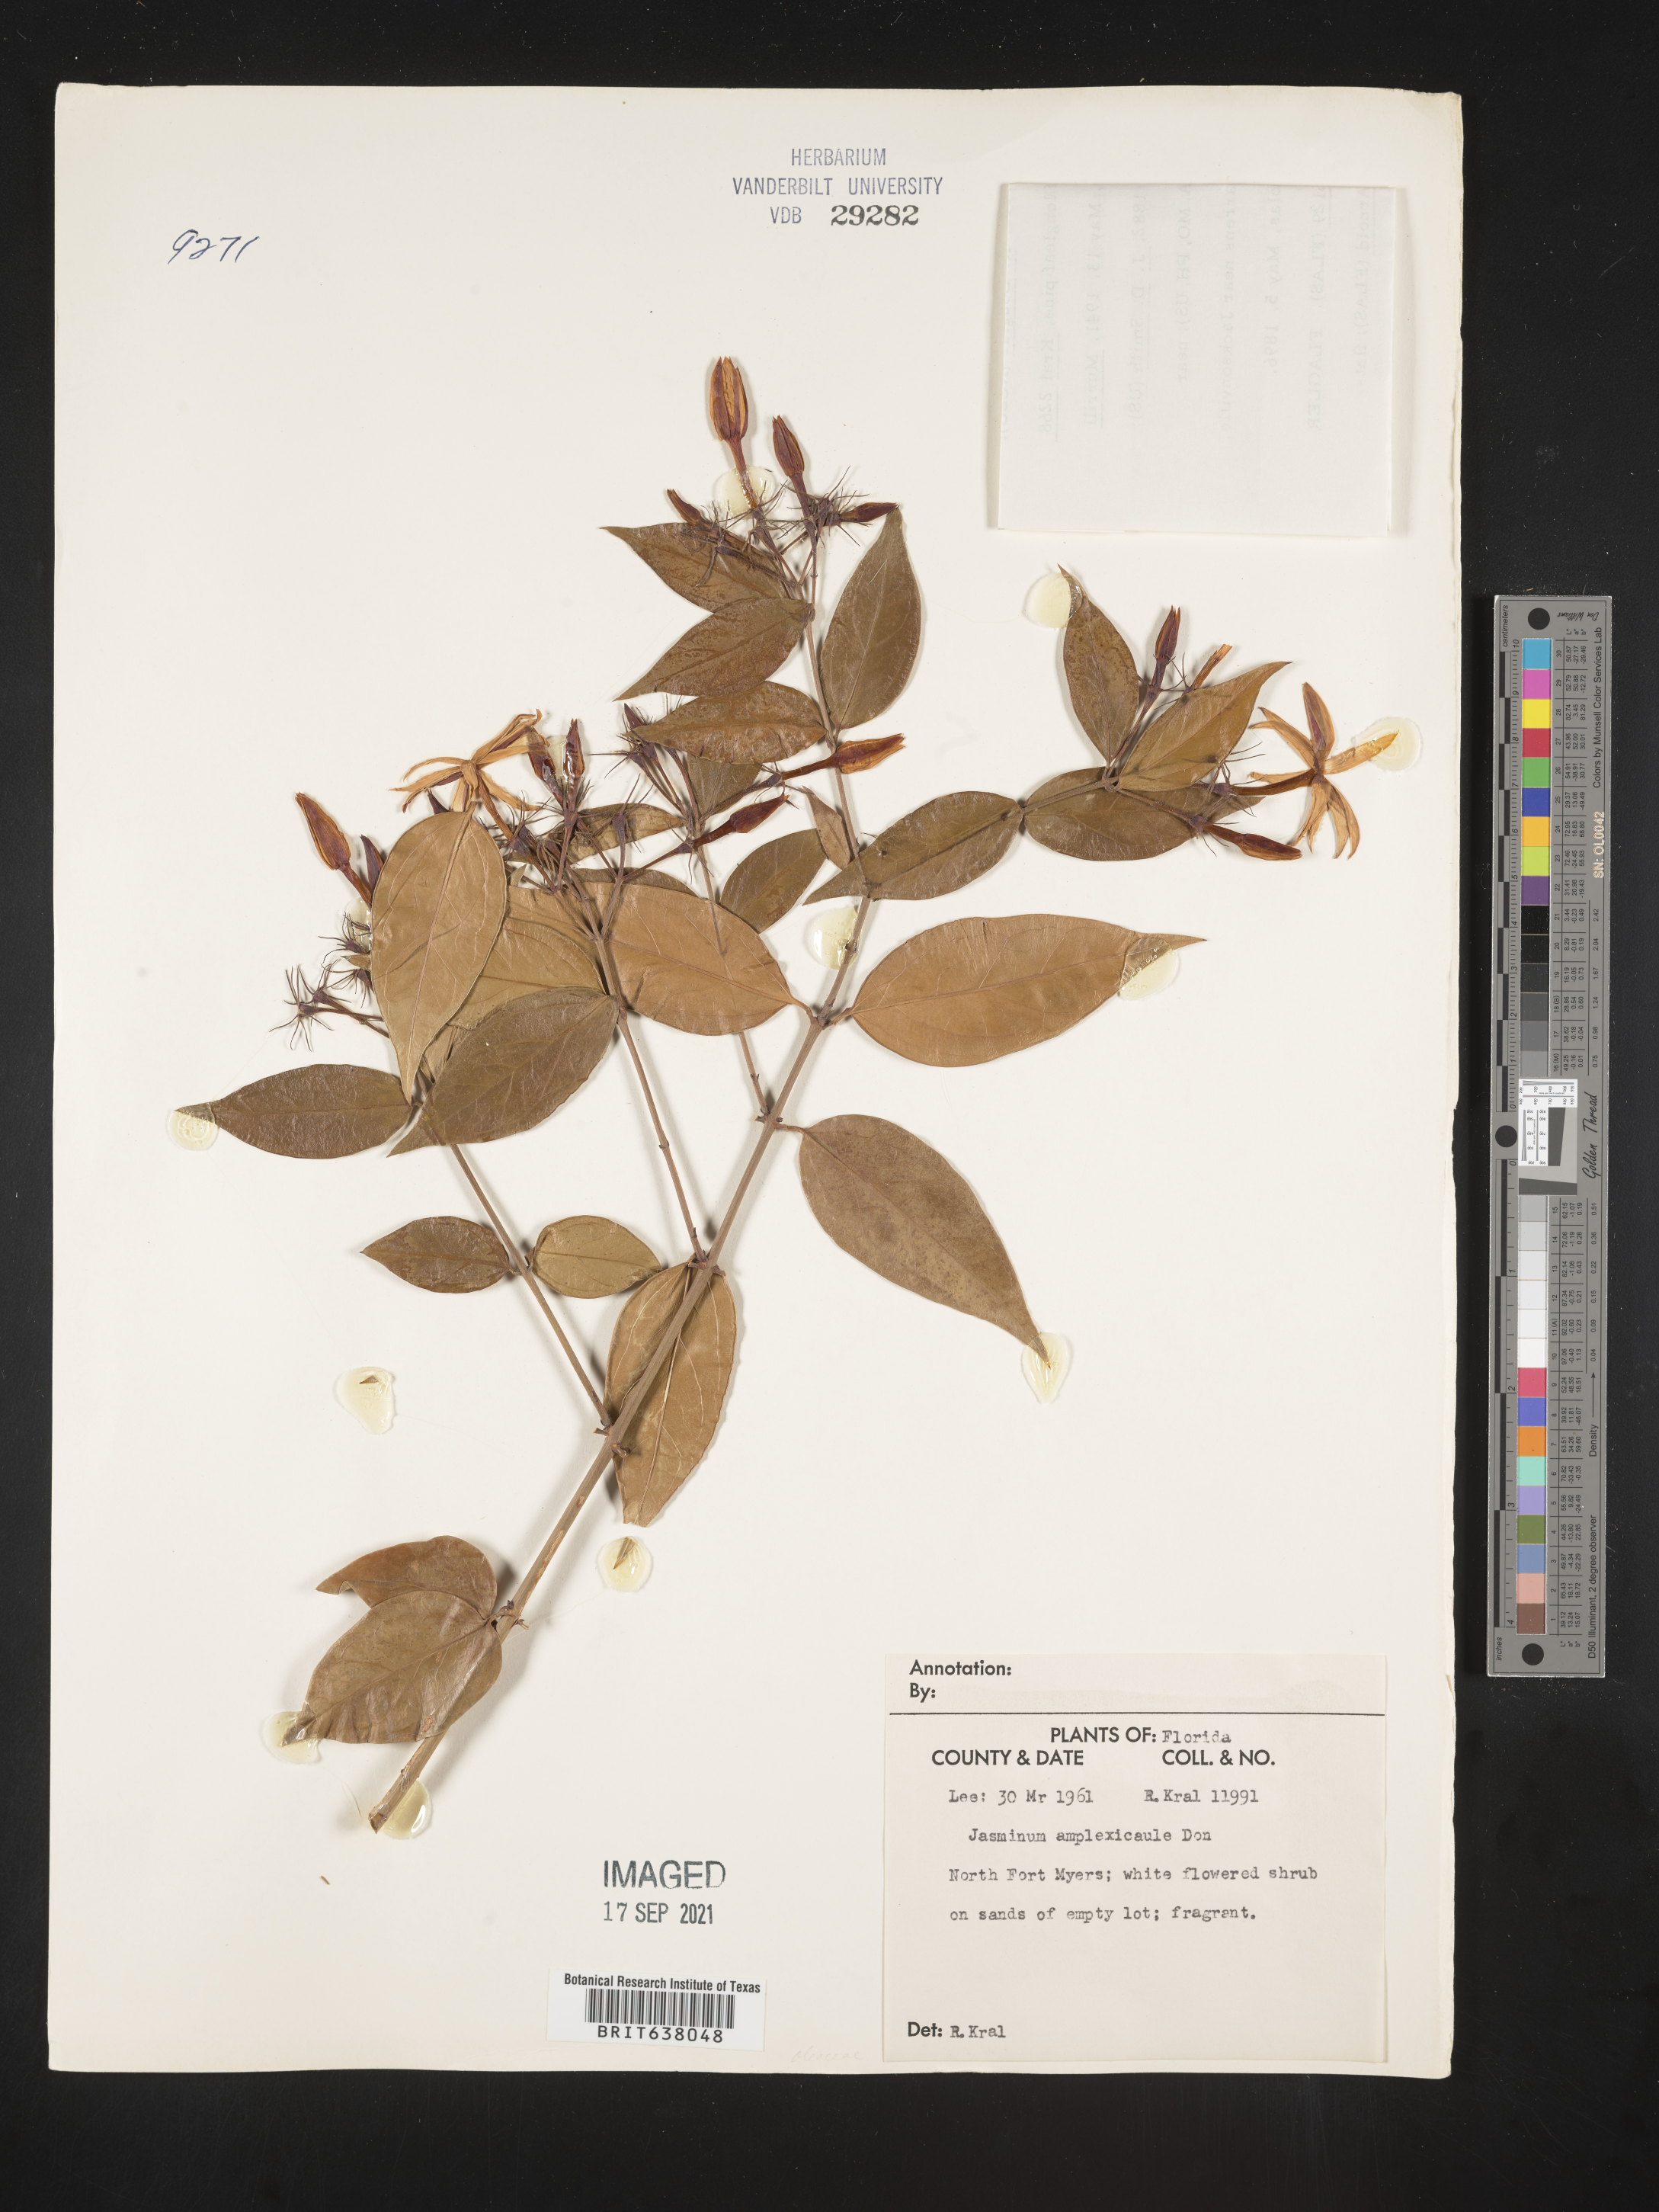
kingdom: Plantae
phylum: Tracheophyta
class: Magnoliopsida
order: Lamiales
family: Oleaceae
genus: Jasminum
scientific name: Jasminum
